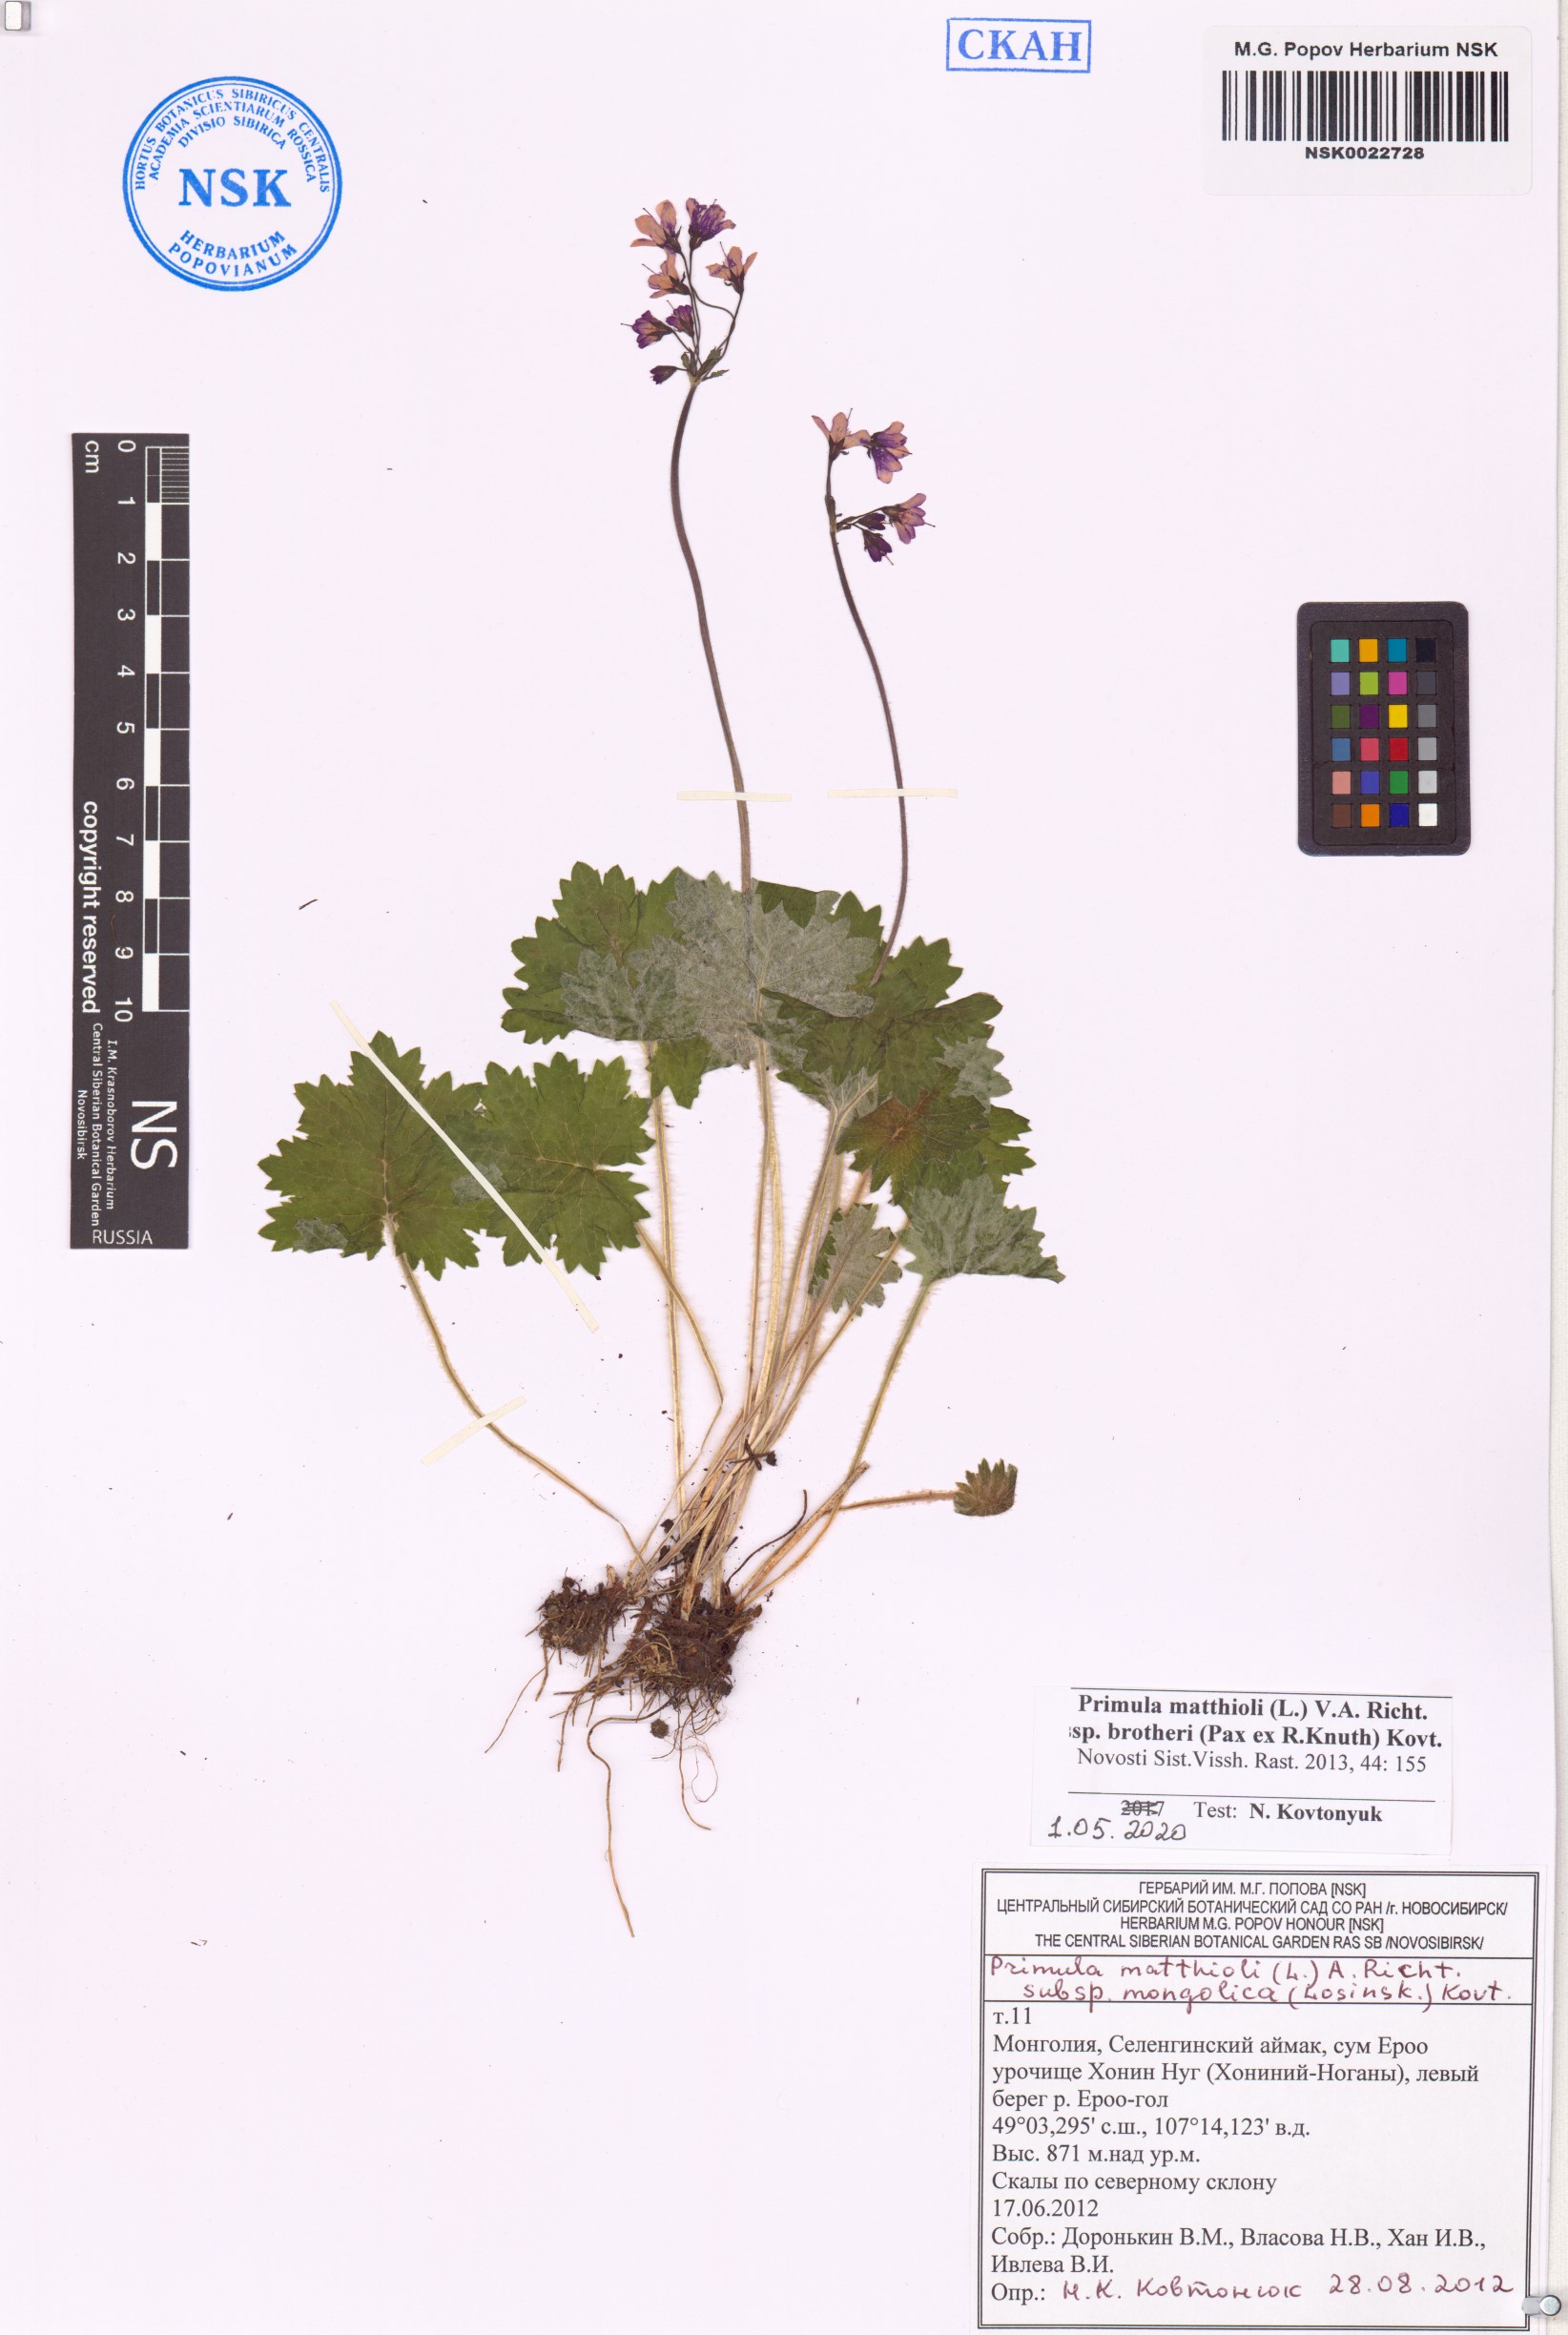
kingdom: Plantae
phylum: Tracheophyta
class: Magnoliopsida
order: Ericales
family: Primulaceae
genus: Primula
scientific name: Primula matthioli
